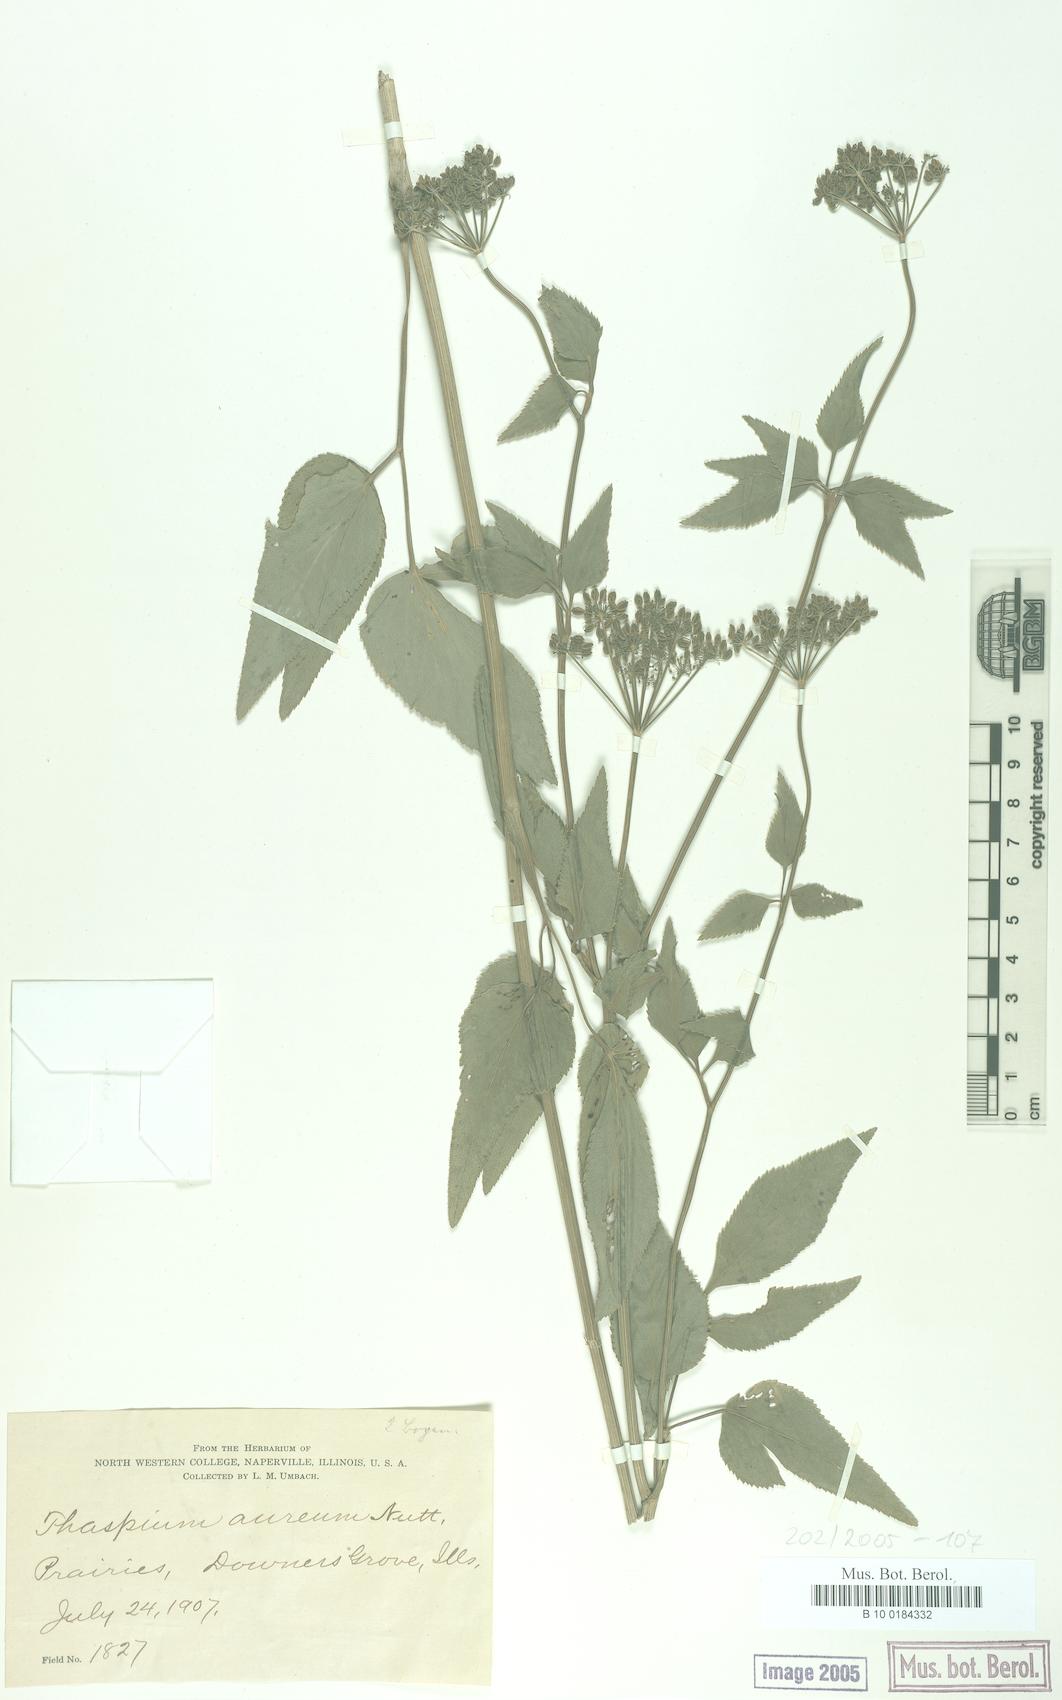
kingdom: Plantae
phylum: Tracheophyta
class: Magnoliopsida
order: Apiales
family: Apiaceae
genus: Thaspium
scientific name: Thaspium trifoliatum
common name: Purple meadow-parsnip
